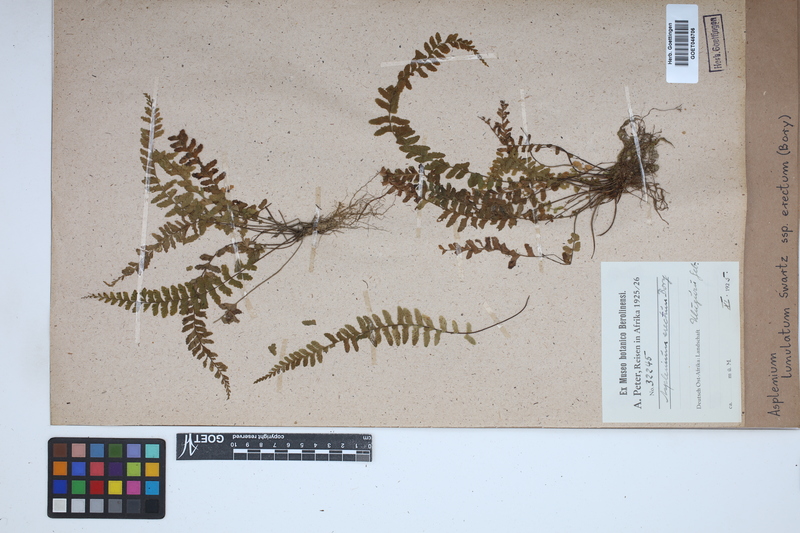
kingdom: Plantae
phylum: Tracheophyta
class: Polypodiopsida
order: Polypodiales
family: Aspleniaceae
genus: Asplenium
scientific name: Asplenium erectum
